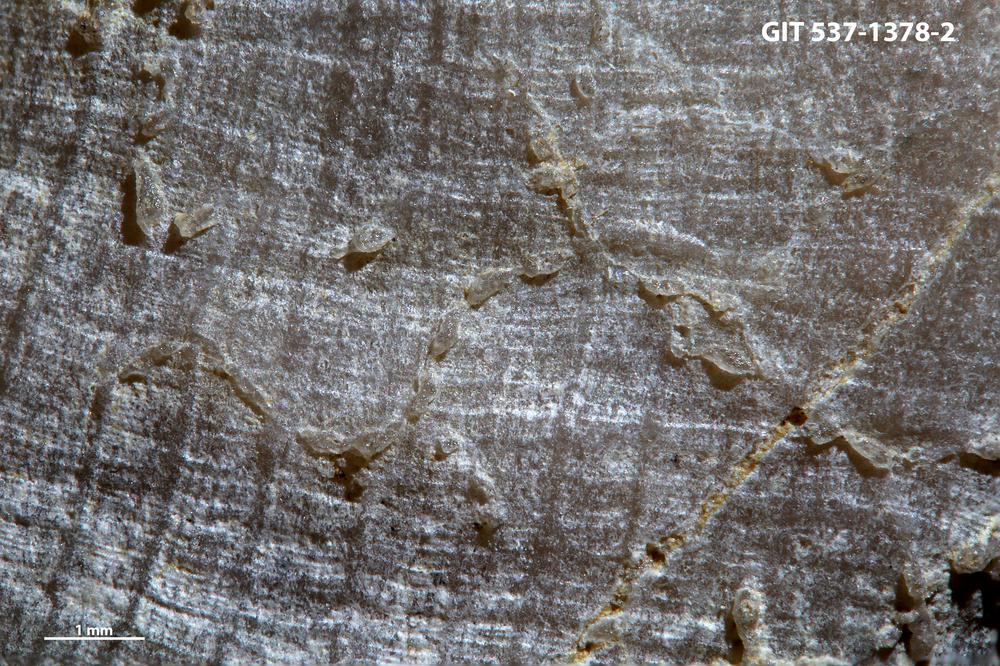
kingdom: Animalia
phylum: Bryozoa
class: Stenolaemata
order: Cyclostomatida
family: Corynotrypidae
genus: Corynotrypa
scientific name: Corynotrypa
